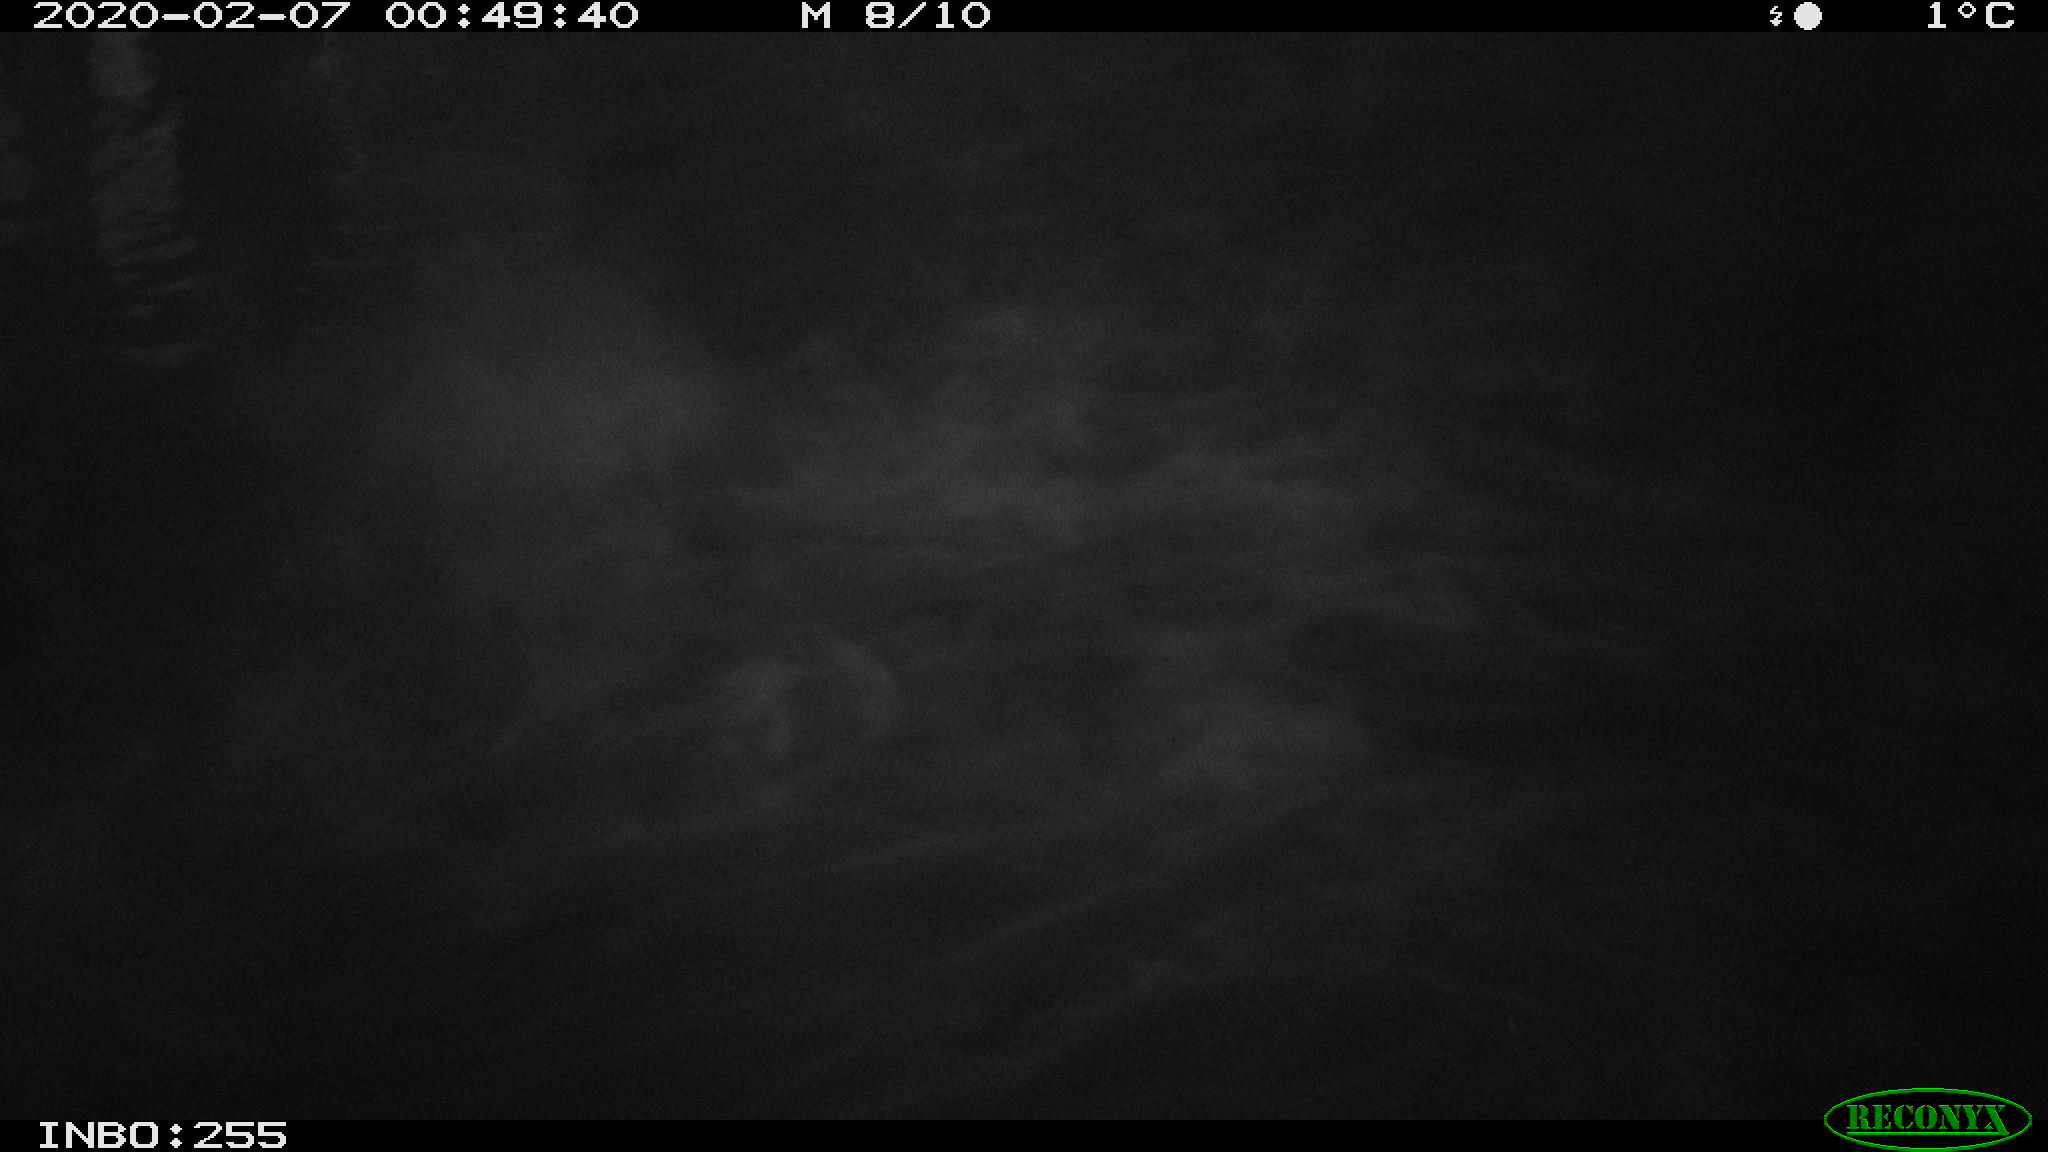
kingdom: Animalia
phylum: Chordata
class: Aves
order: Gruiformes
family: Rallidae
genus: Gallinula
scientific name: Gallinula chloropus
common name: Common moorhen
